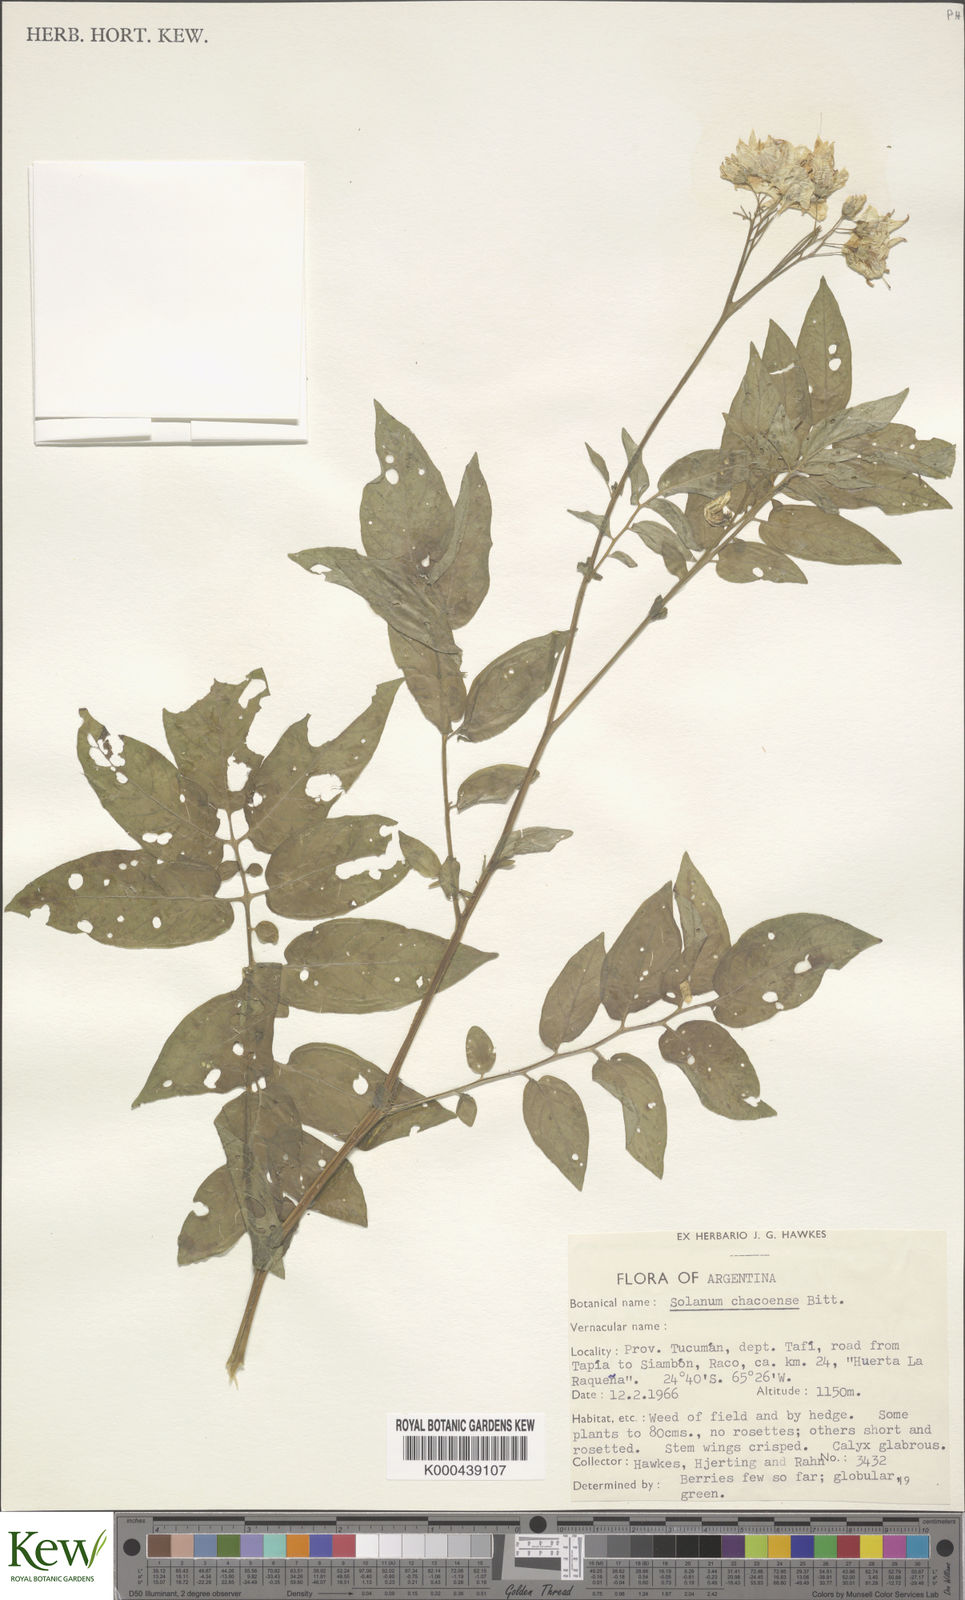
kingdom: Plantae
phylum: Tracheophyta
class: Magnoliopsida
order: Solanales
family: Solanaceae
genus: Solanum
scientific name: Solanum chacoense
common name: Chaco potato
